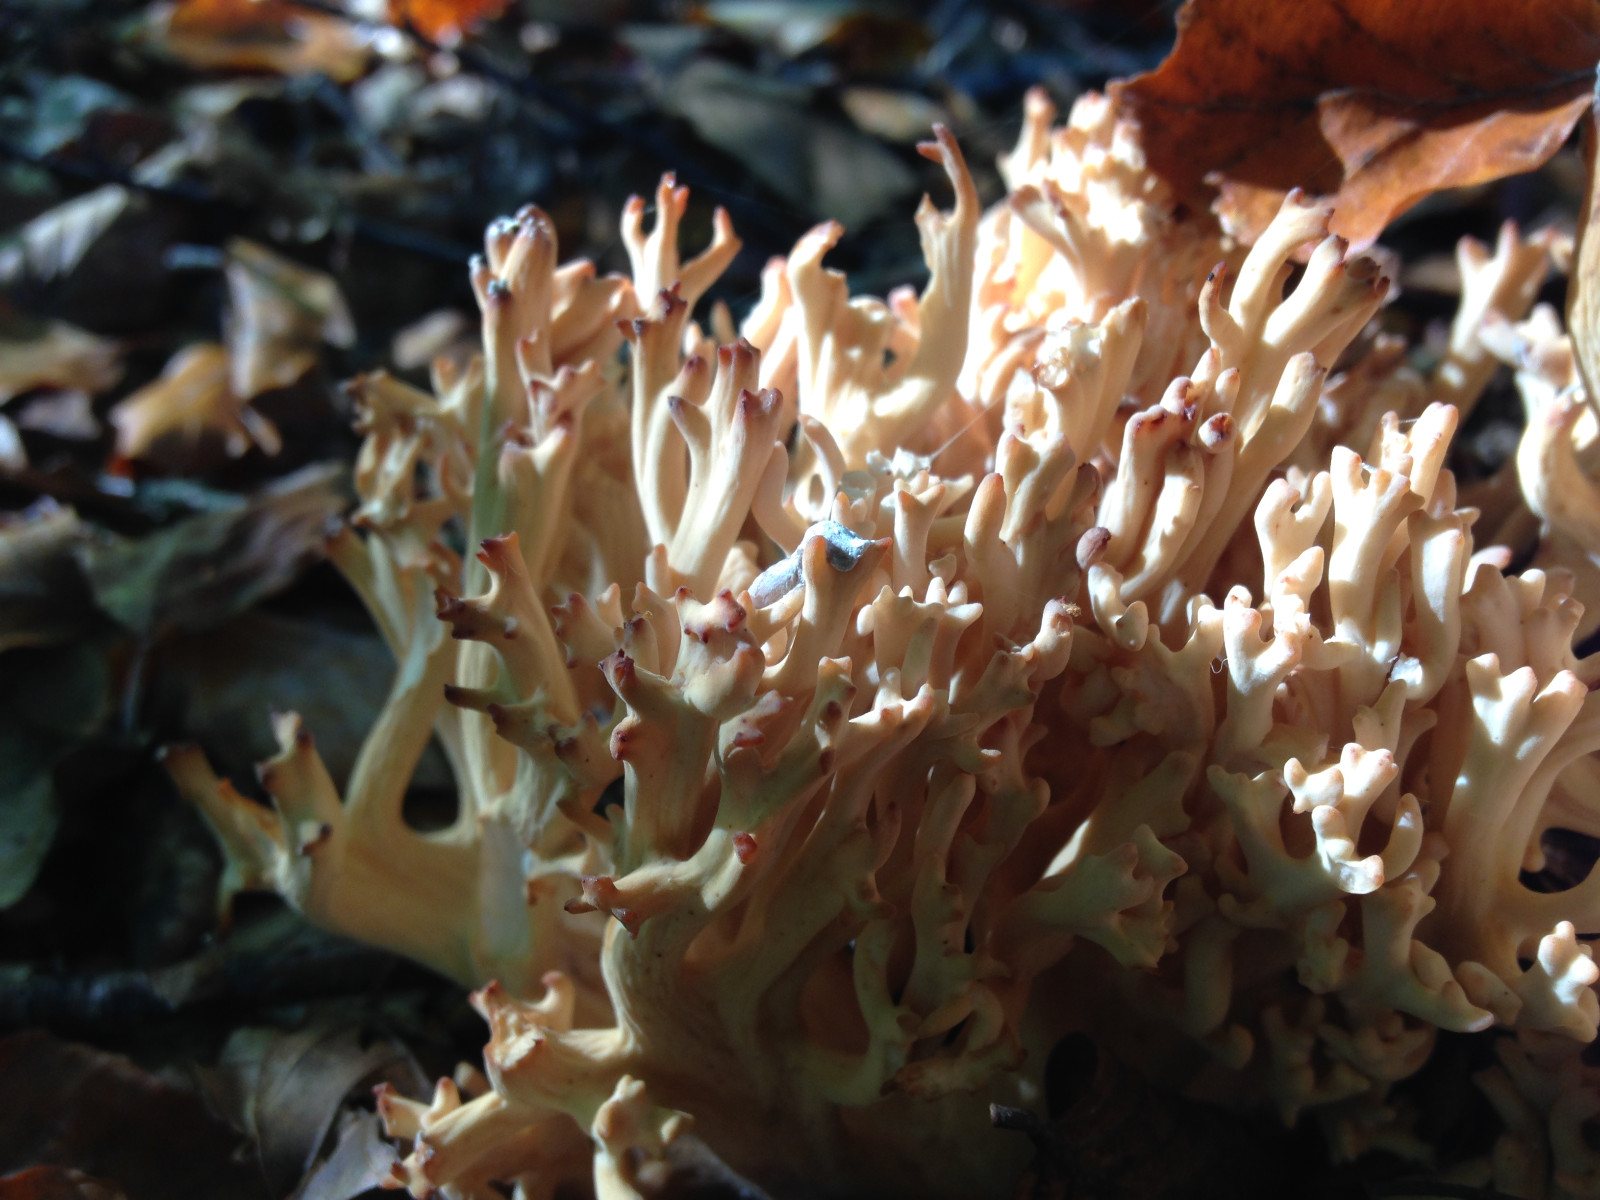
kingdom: Fungi
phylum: Basidiomycota
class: Agaricomycetes
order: Gomphales
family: Gomphaceae
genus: Ramaria
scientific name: Ramaria botrytis
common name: drue-koralsvamp
